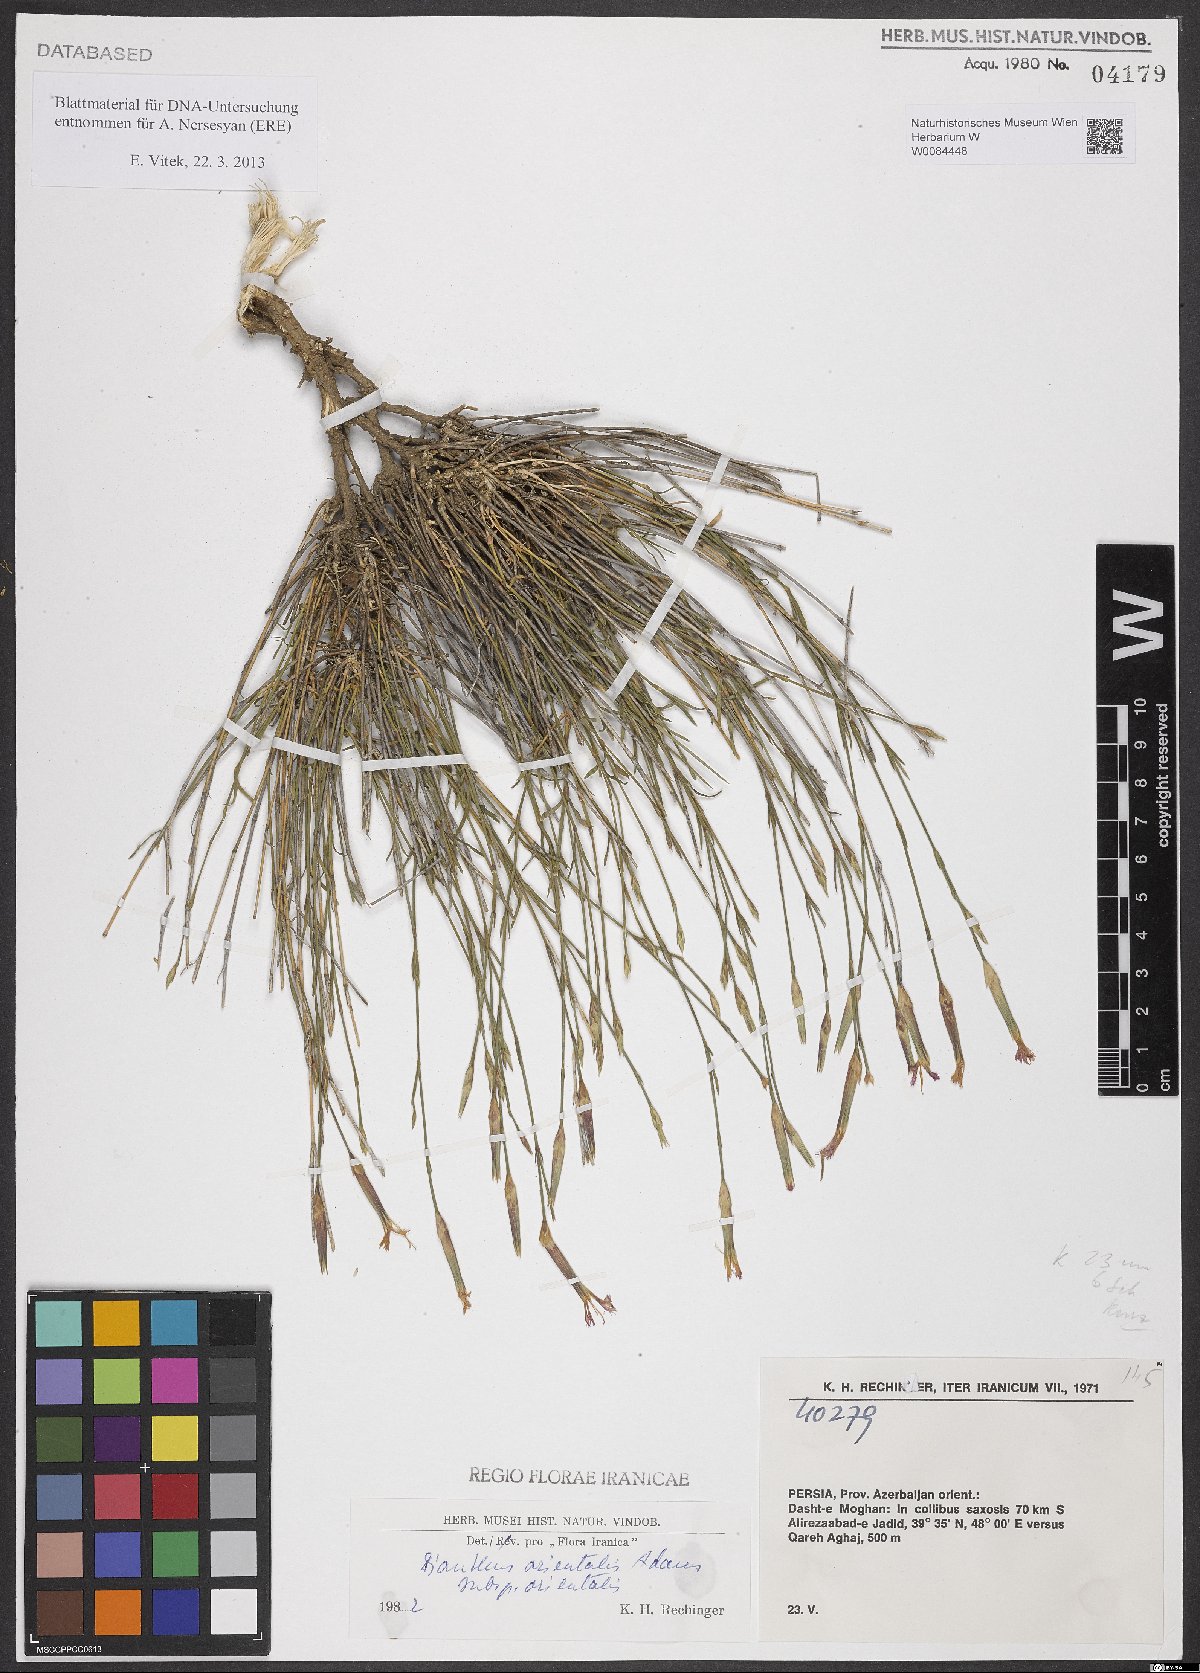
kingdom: Plantae
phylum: Tracheophyta
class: Magnoliopsida
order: Caryophyllales
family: Caryophyllaceae
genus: Dianthus
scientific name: Dianthus orientalis
